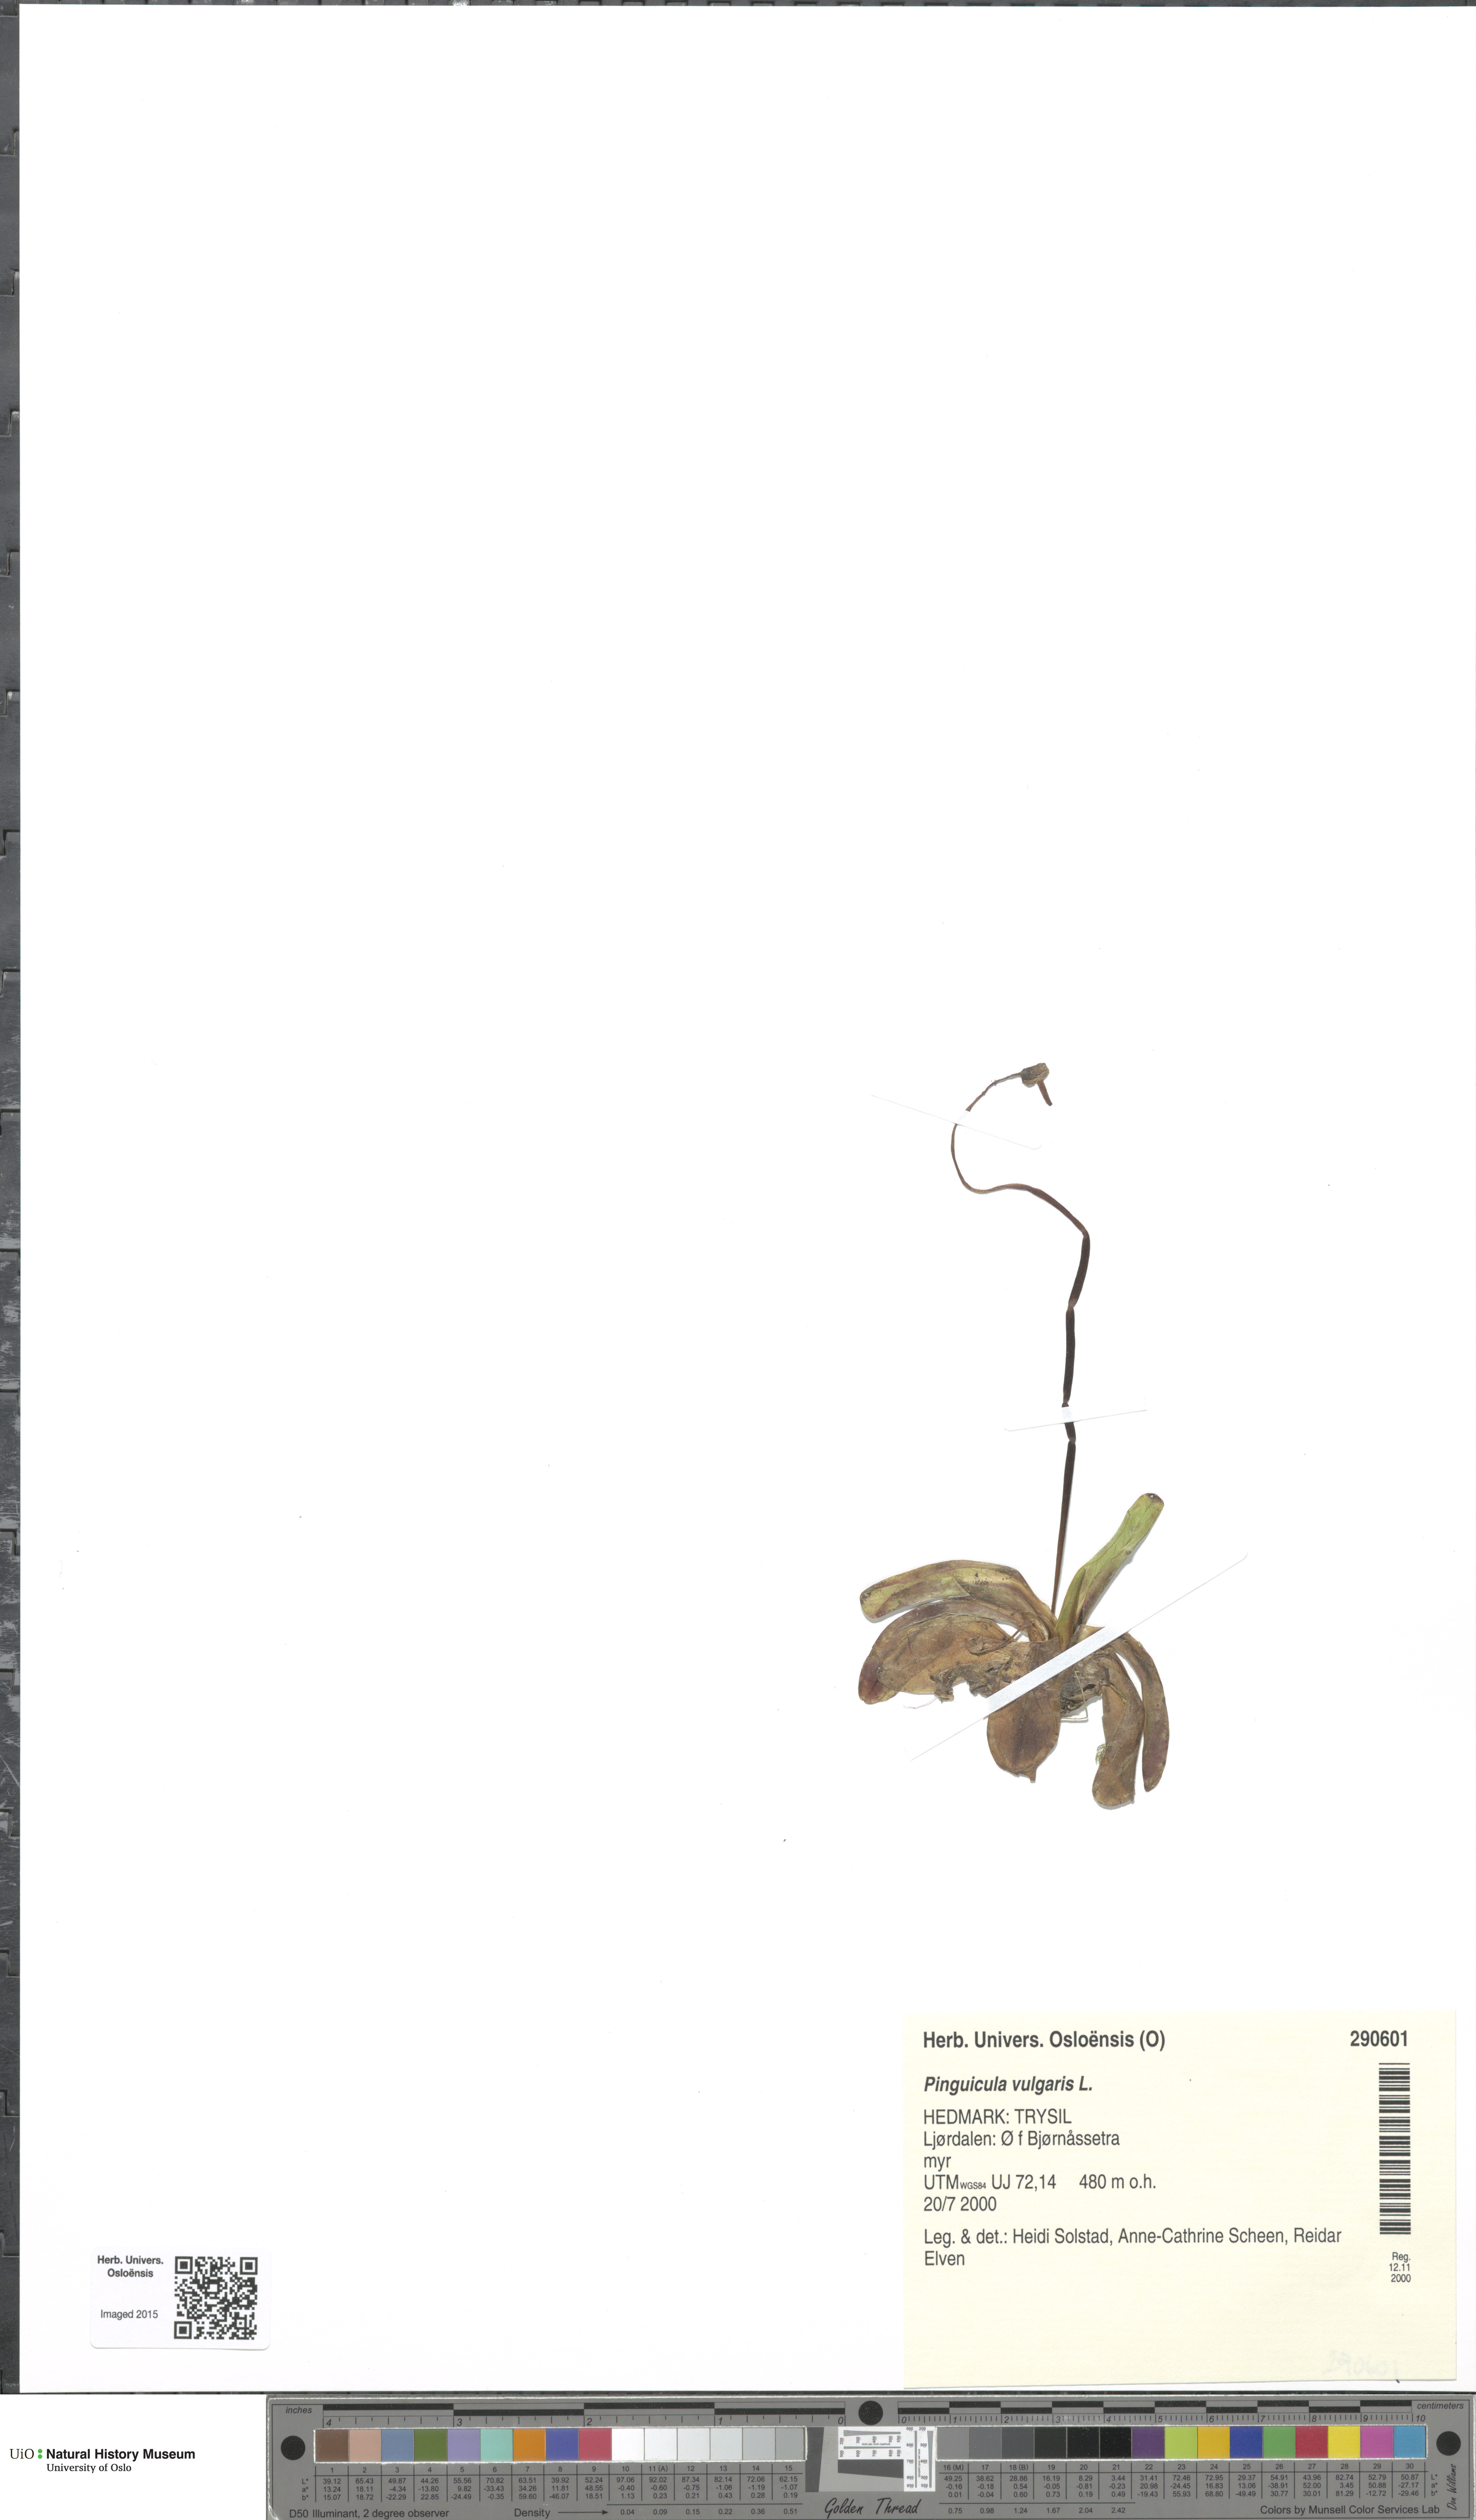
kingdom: Plantae
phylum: Tracheophyta
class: Magnoliopsida
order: Lamiales
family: Lentibulariaceae
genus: Pinguicula
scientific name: Pinguicula vulgaris
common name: Common butterwort
